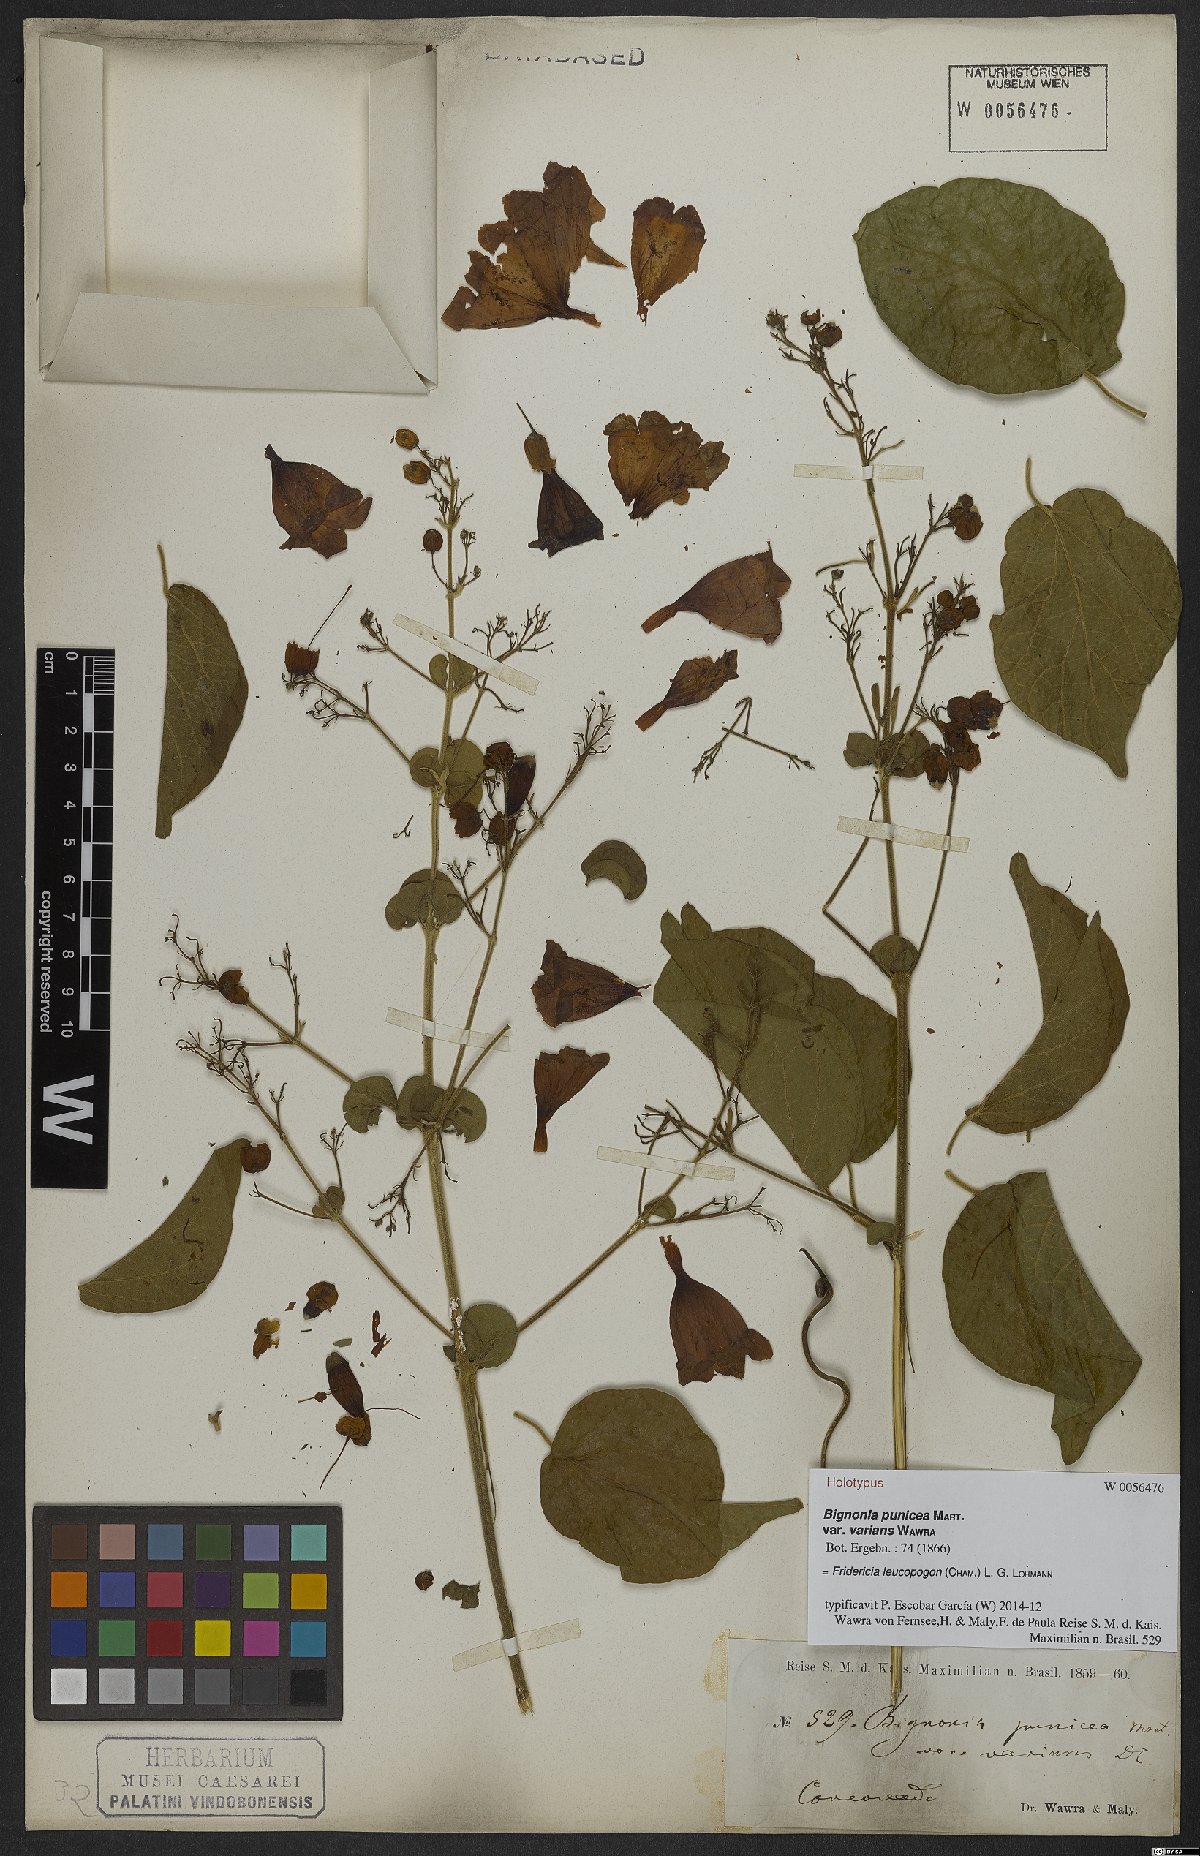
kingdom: Plantae
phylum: Tracheophyta
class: Magnoliopsida
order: Lamiales
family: Bignoniaceae
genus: Fridericia
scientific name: Fridericia leucopogon
